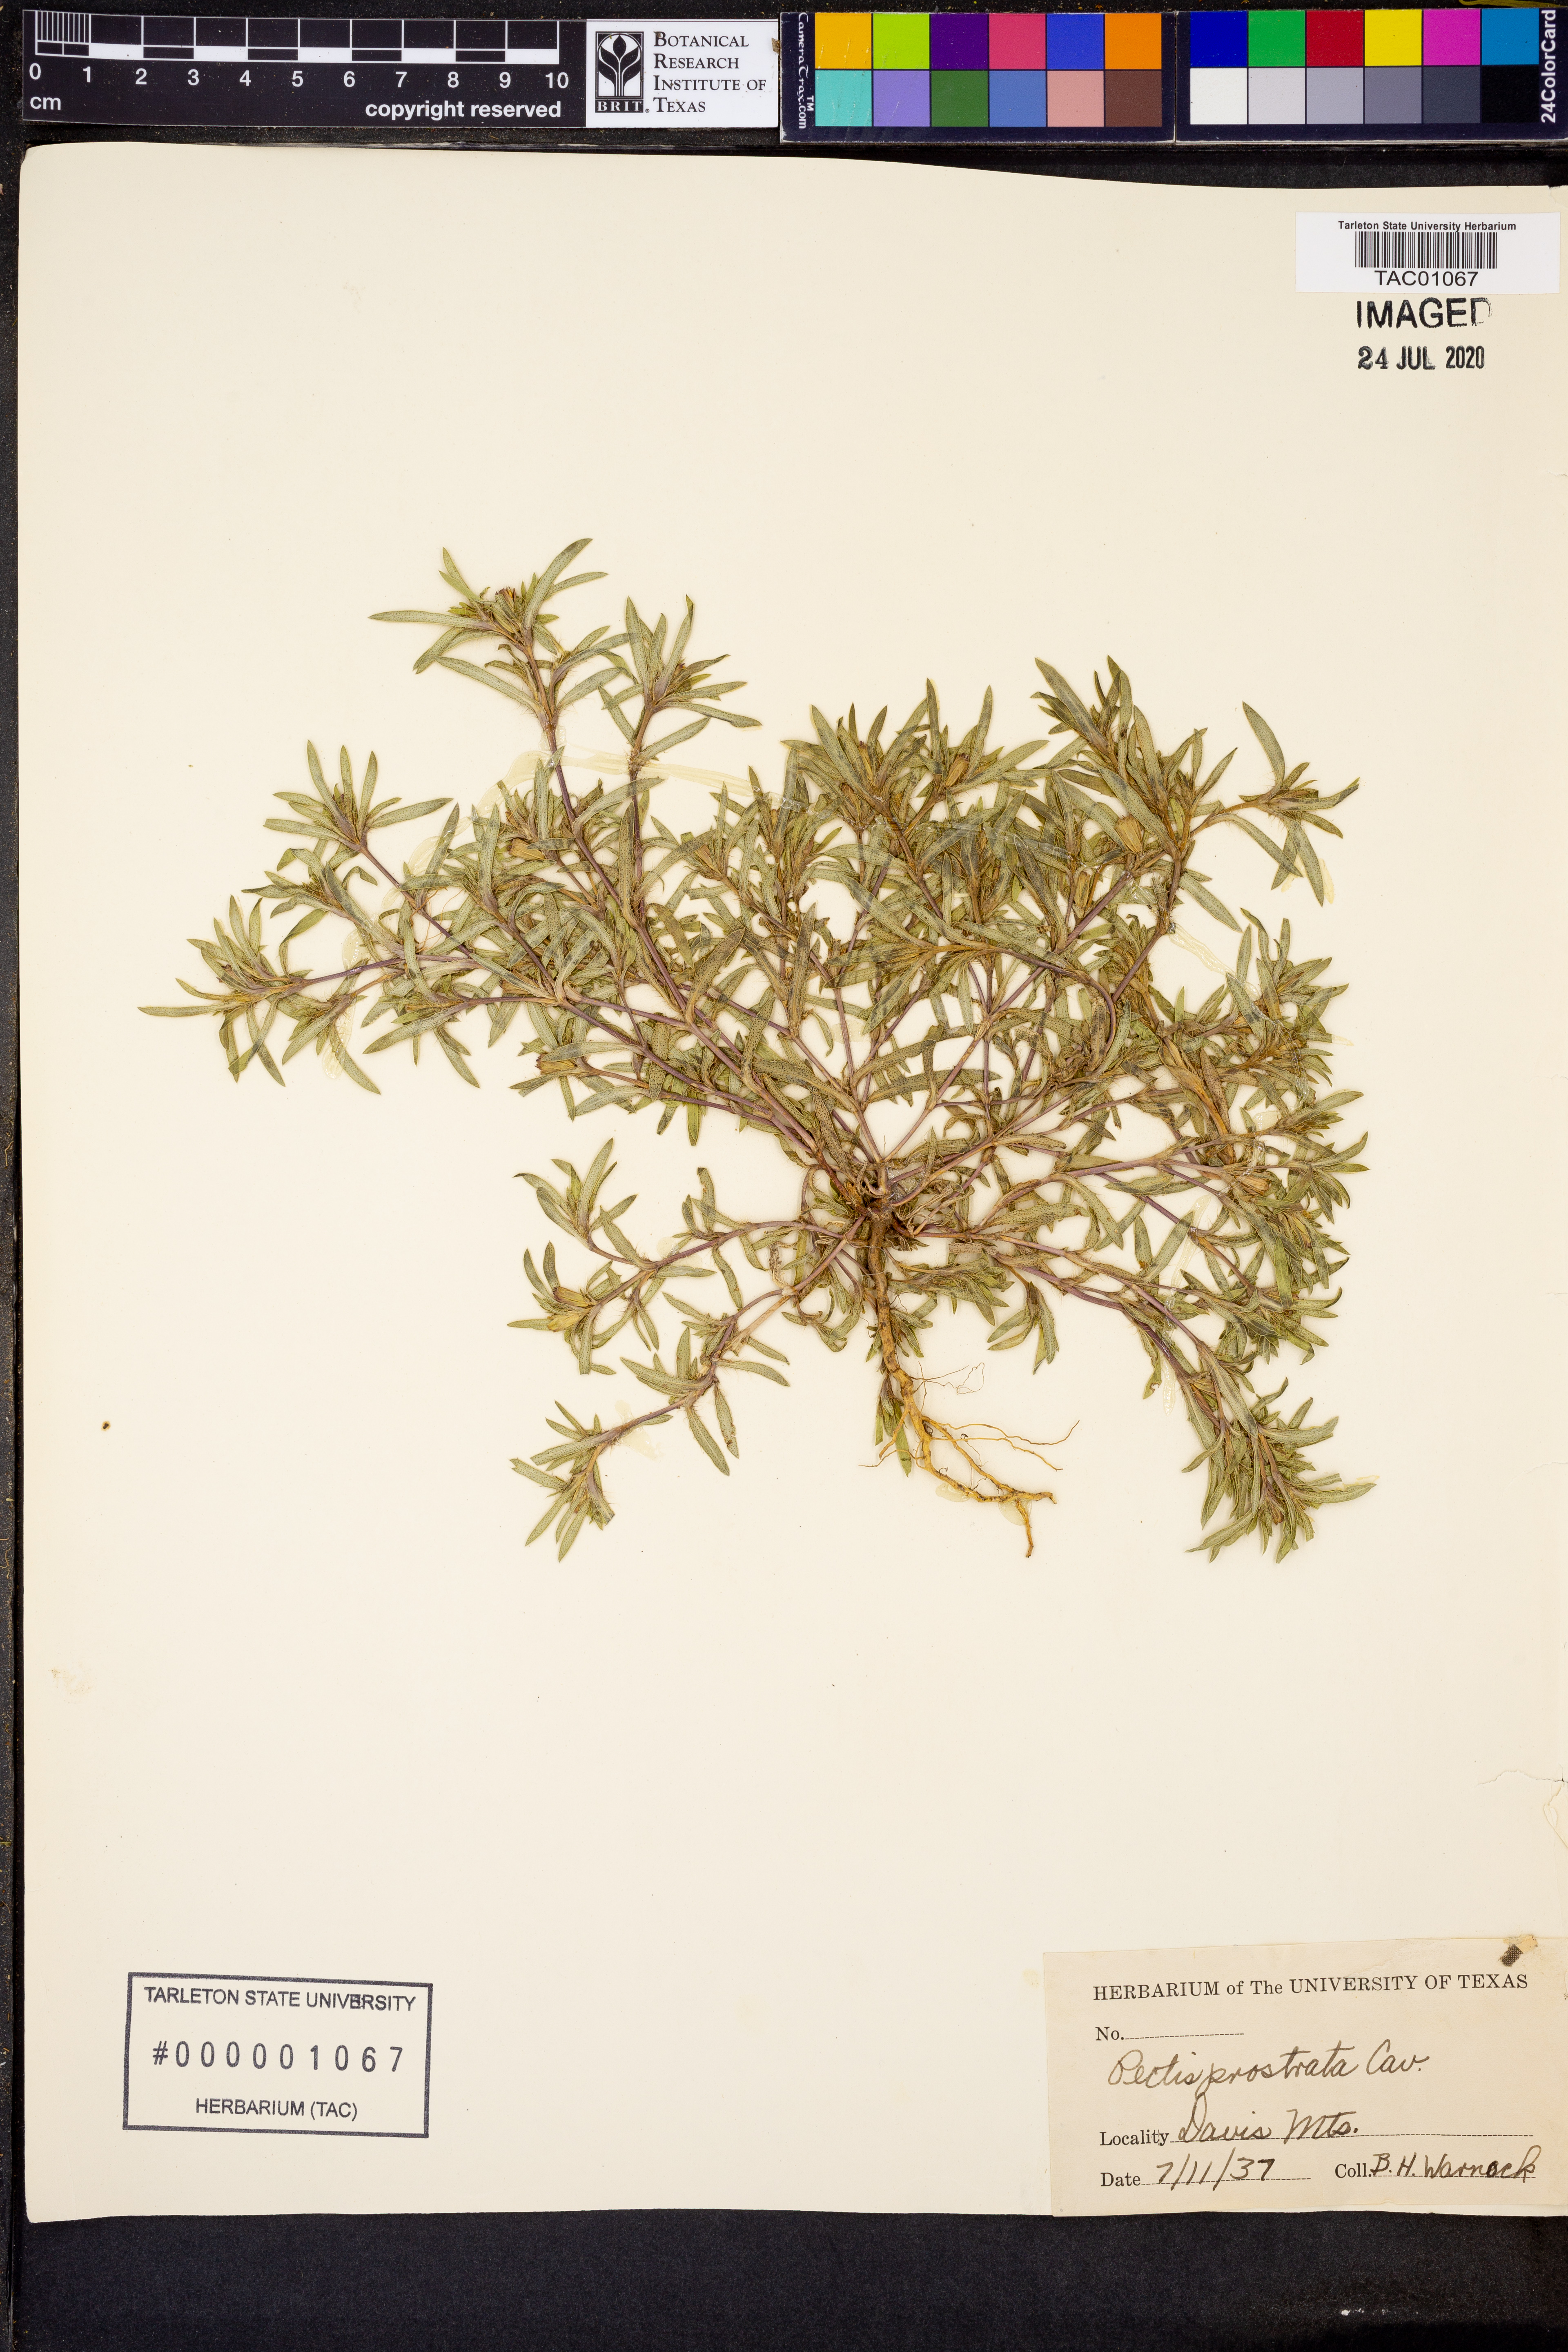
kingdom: Plantae
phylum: Tracheophyta
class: Magnoliopsida
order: Asterales
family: Asteraceae
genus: Pectis
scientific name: Pectis prostrata
